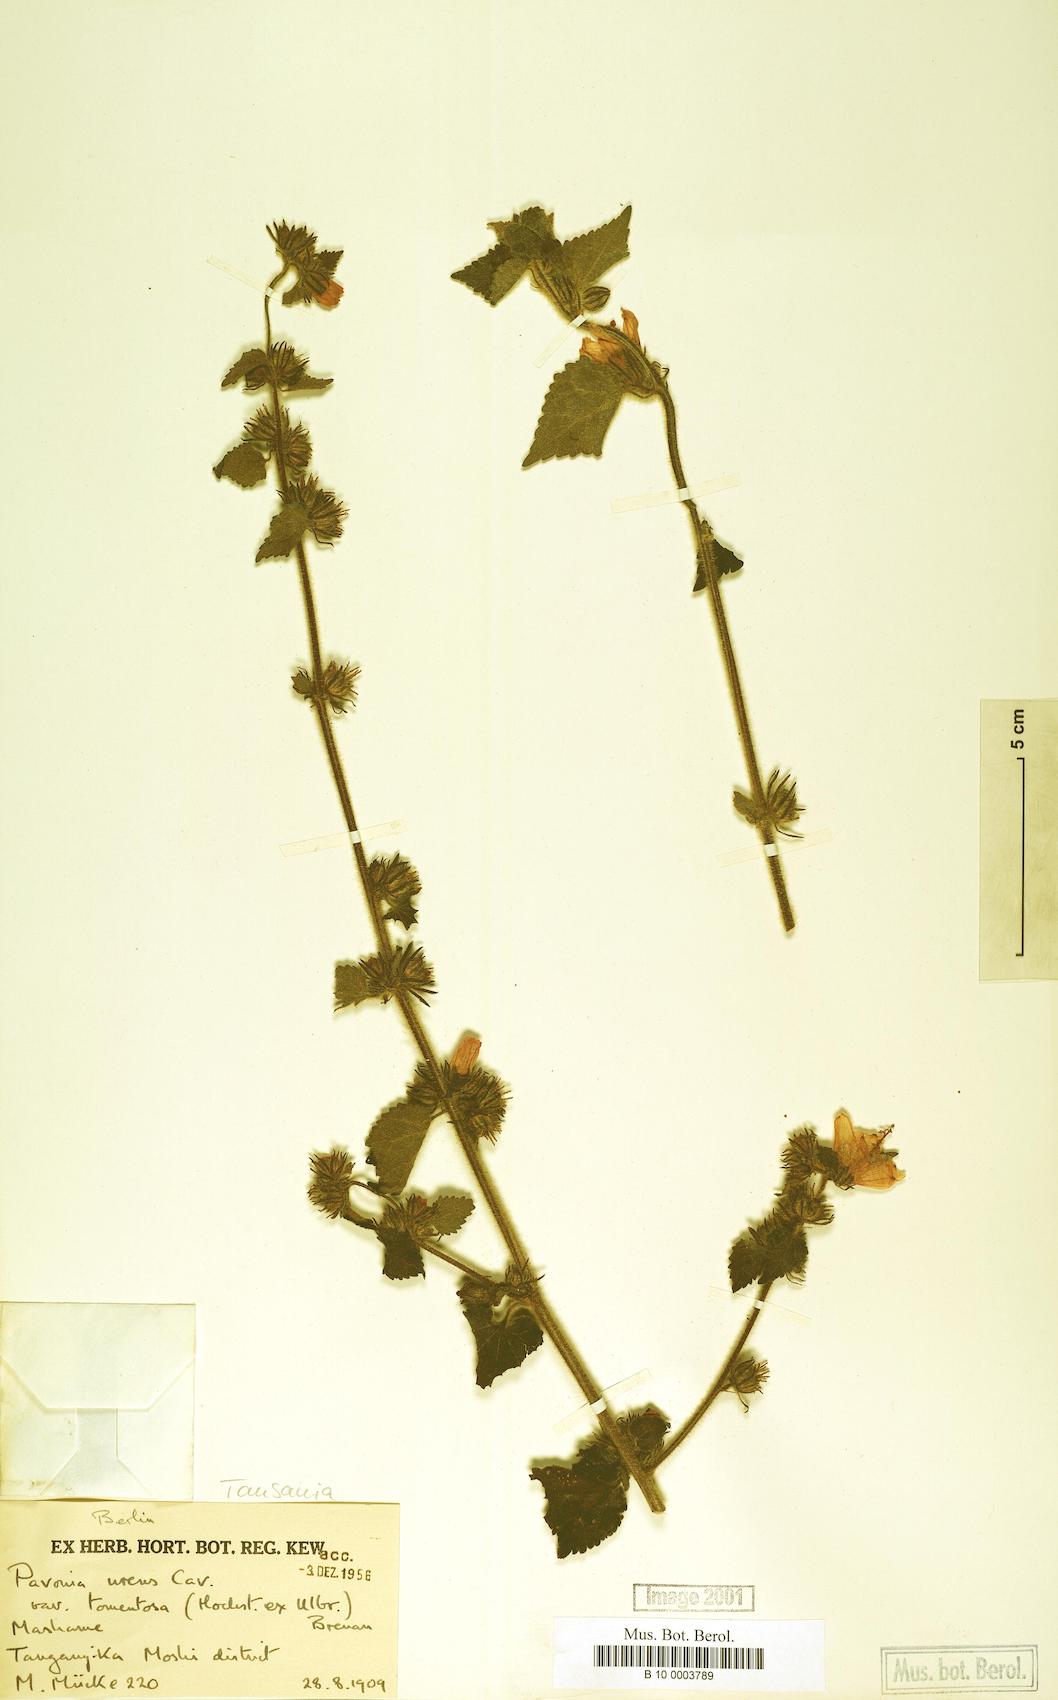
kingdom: Plantae
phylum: Tracheophyta
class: Magnoliopsida
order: Malvales
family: Malvaceae
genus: Pavonia
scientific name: Pavonia urens
